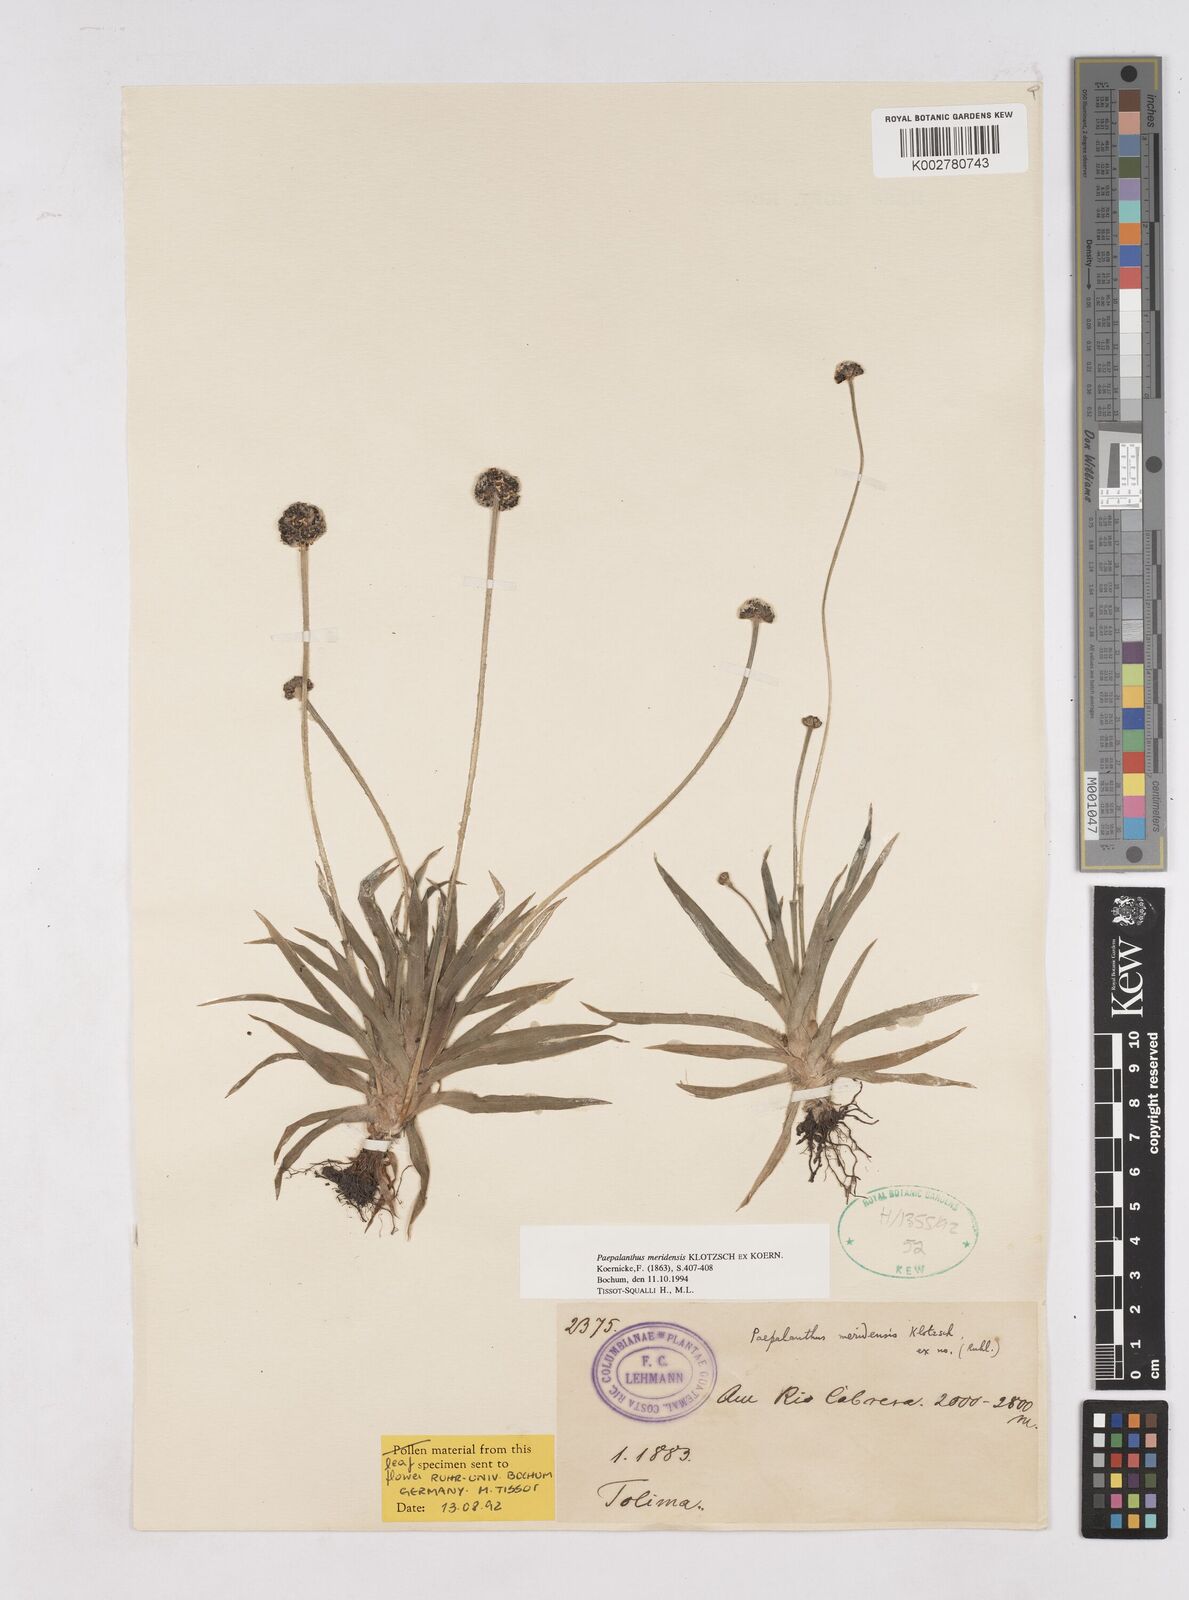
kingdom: Plantae
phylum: Tracheophyta
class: Liliopsida
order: Poales
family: Eriocaulaceae
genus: Paepalanthus
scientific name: Paepalanthus meridensis
